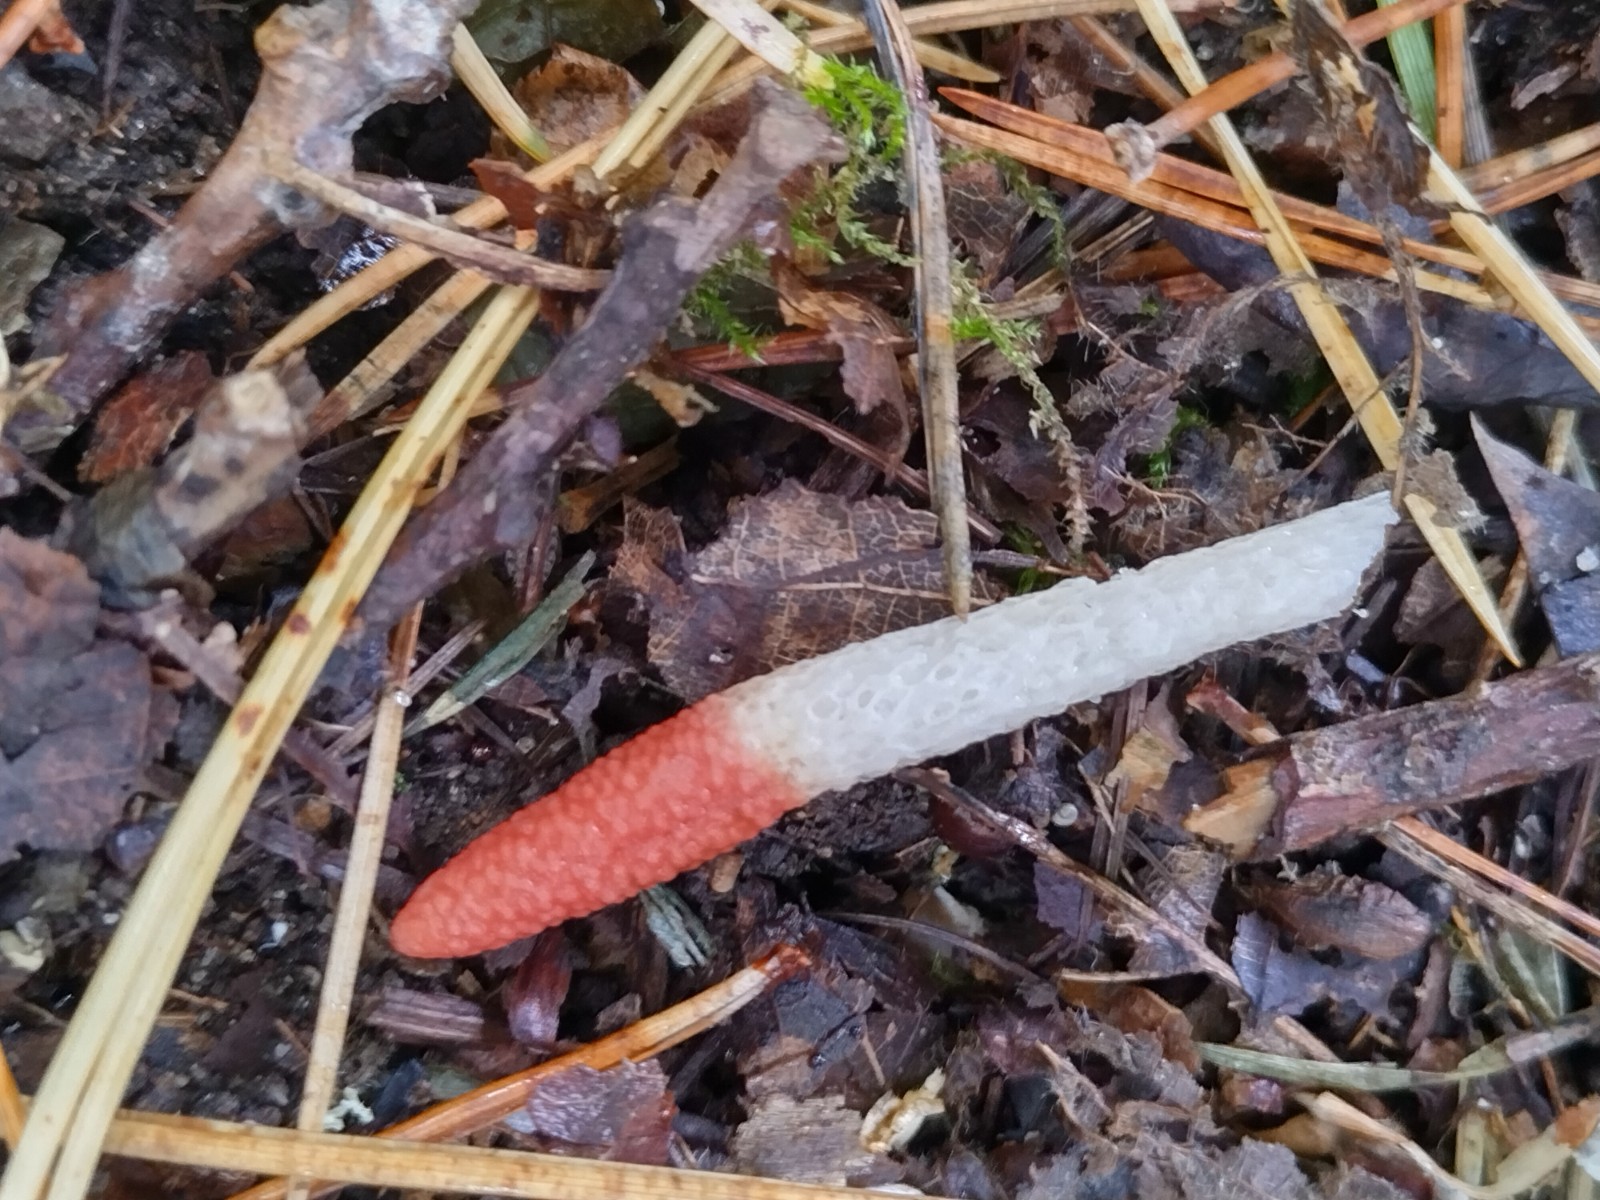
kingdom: Fungi
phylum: Basidiomycota
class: Agaricomycetes
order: Phallales
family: Phallaceae
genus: Mutinus
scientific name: Mutinus ravenelii
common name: rød stinksvamp
